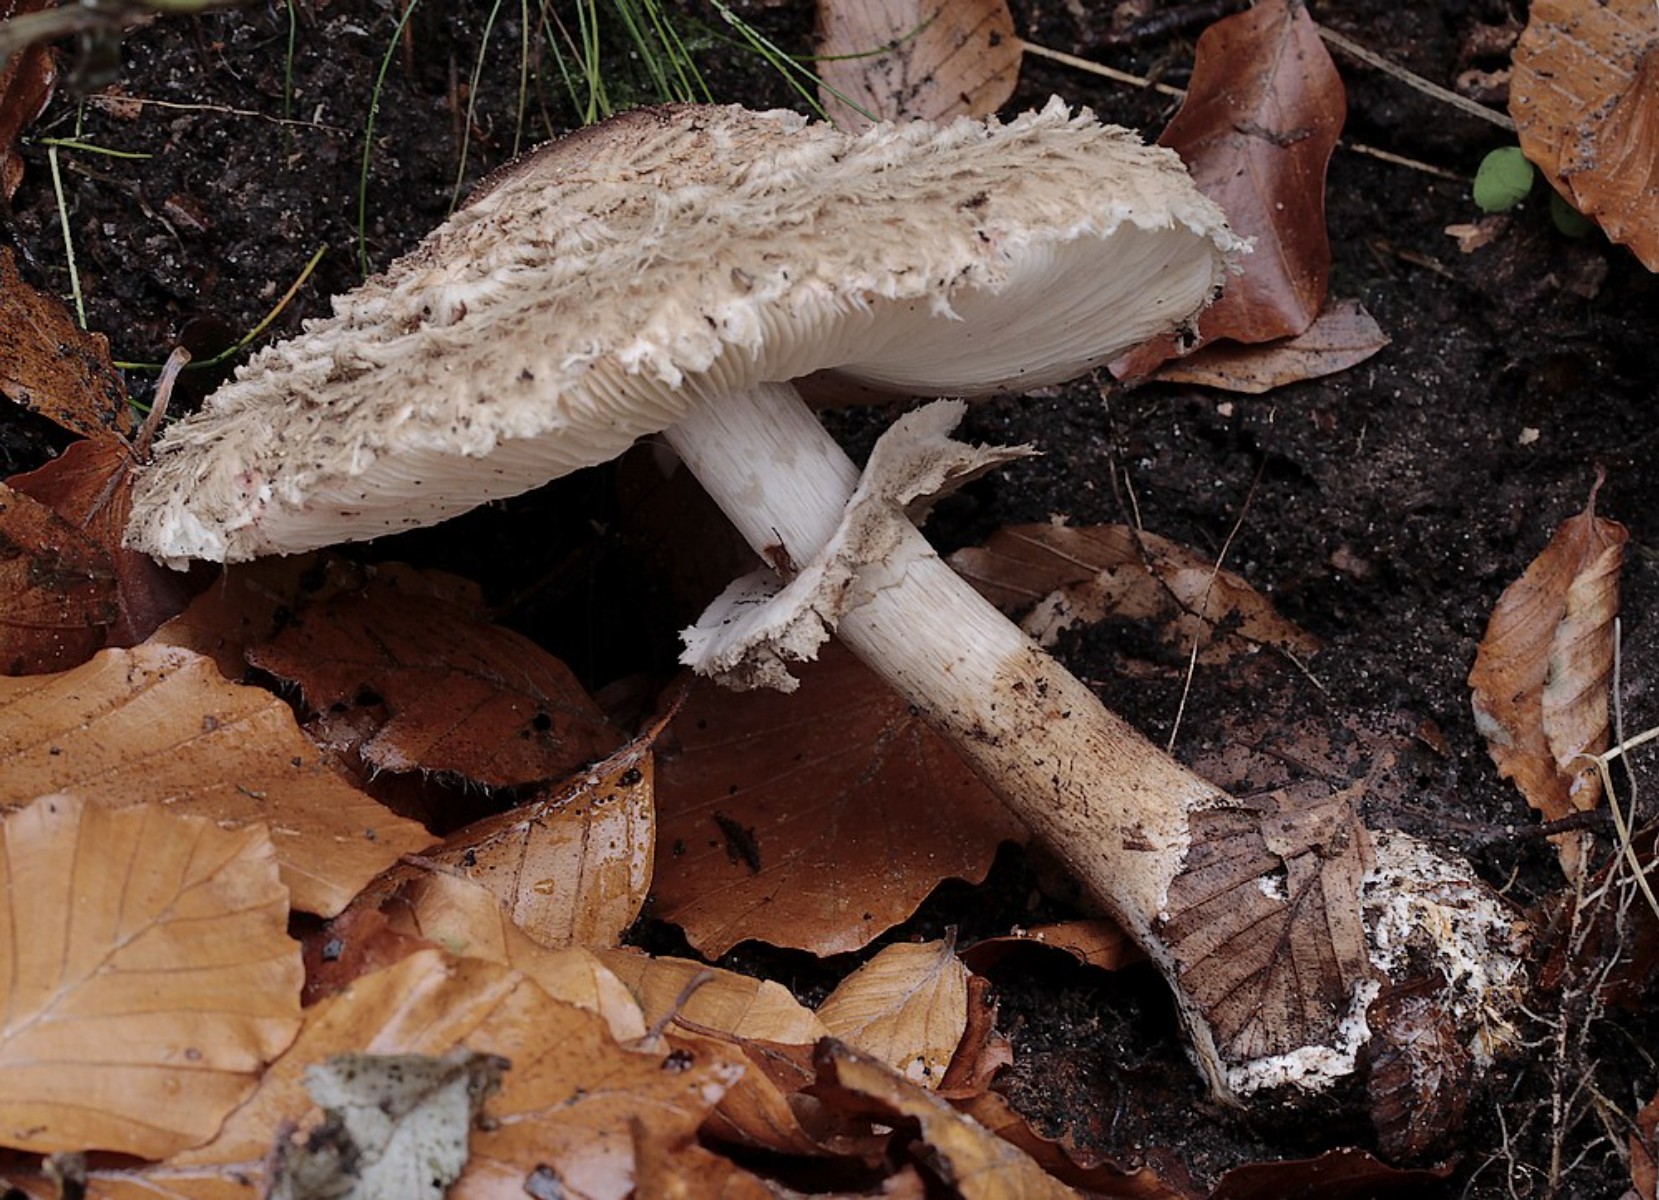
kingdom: Fungi
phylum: Basidiomycota
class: Agaricomycetes
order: Agaricales
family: Agaricaceae
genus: Echinoderma
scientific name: Echinoderma asperum
